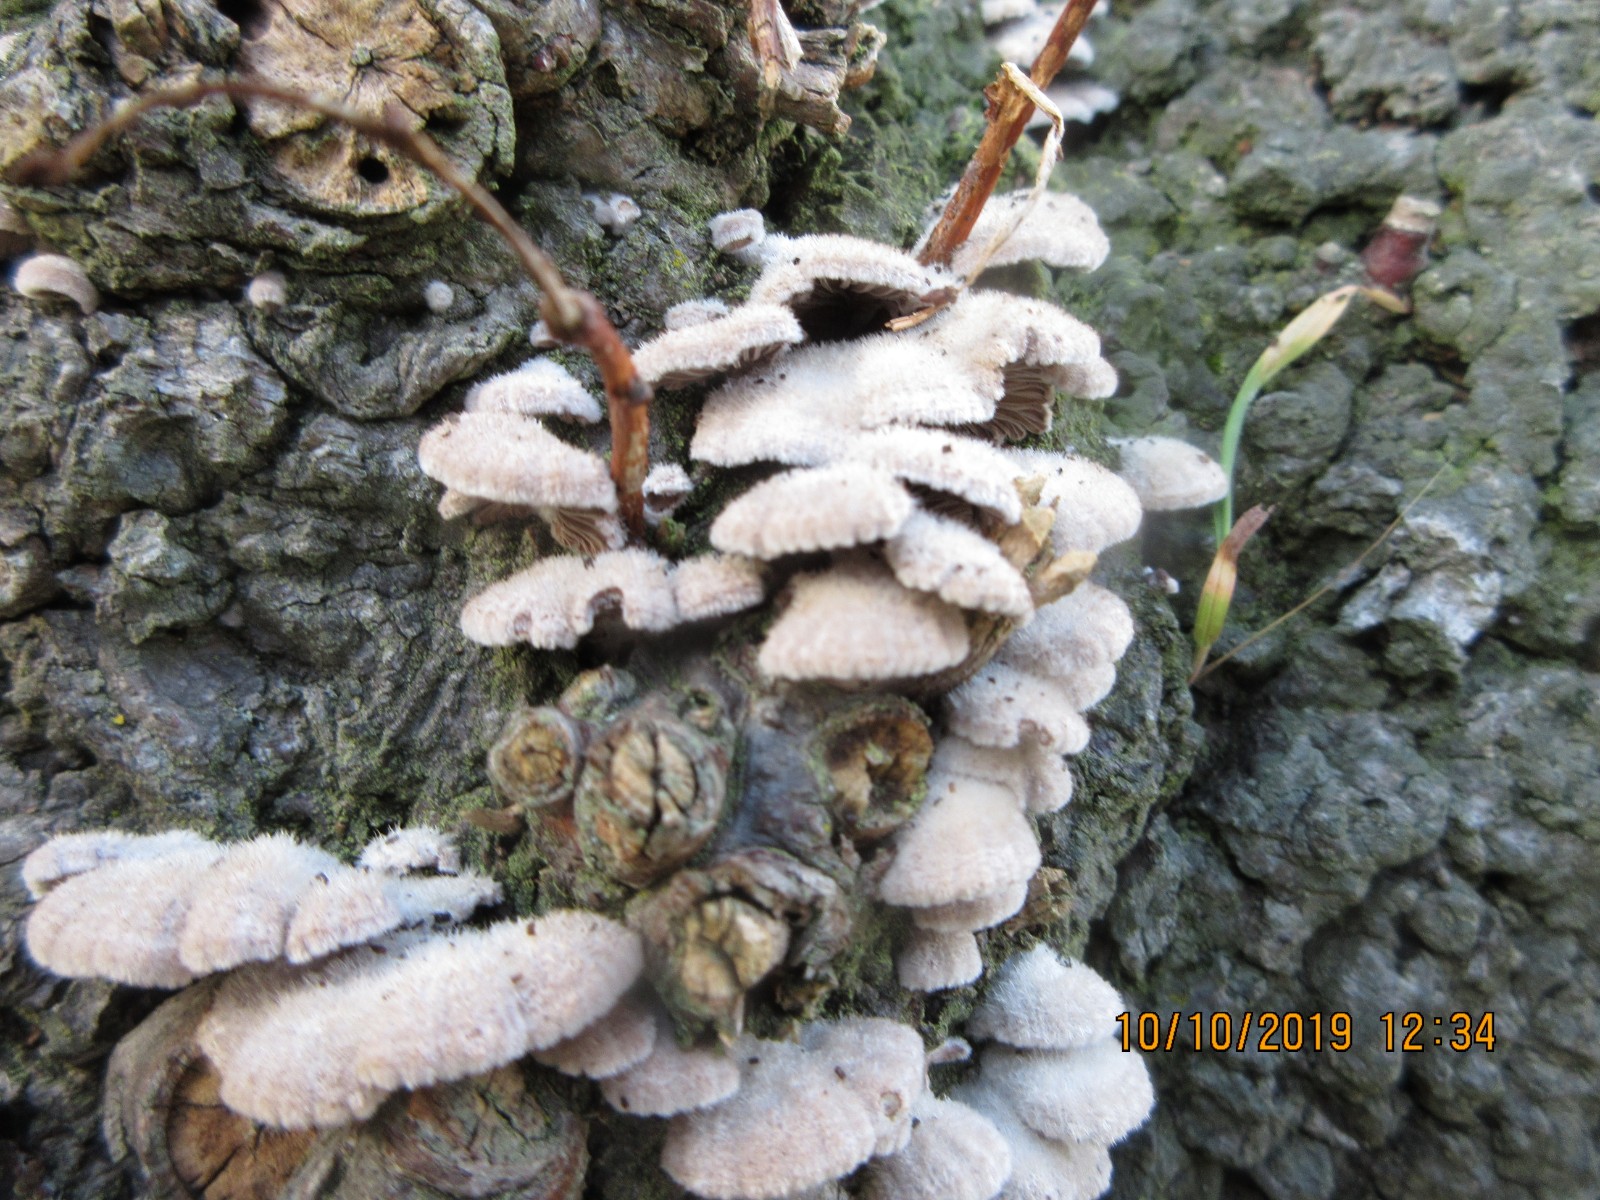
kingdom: Fungi
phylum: Basidiomycota
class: Agaricomycetes
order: Agaricales
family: Schizophyllaceae
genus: Schizophyllum
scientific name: Schizophyllum commune
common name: kløvblad
